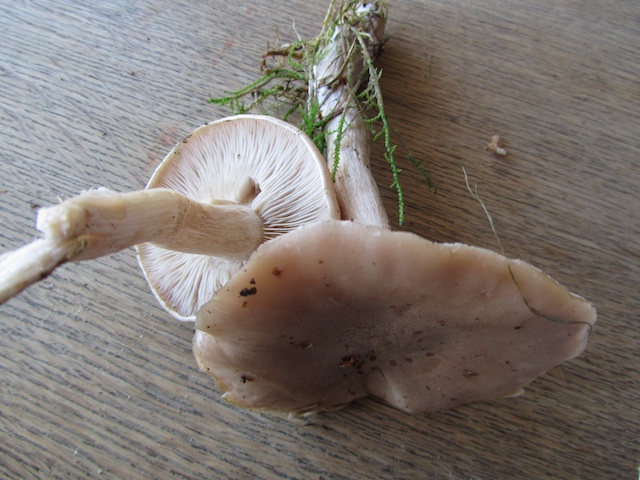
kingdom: Fungi
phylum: Basidiomycota
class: Agaricomycetes
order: Agaricales
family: Tricholomataceae
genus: Lepista
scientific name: Lepista irina
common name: violduftende hekseringshat
